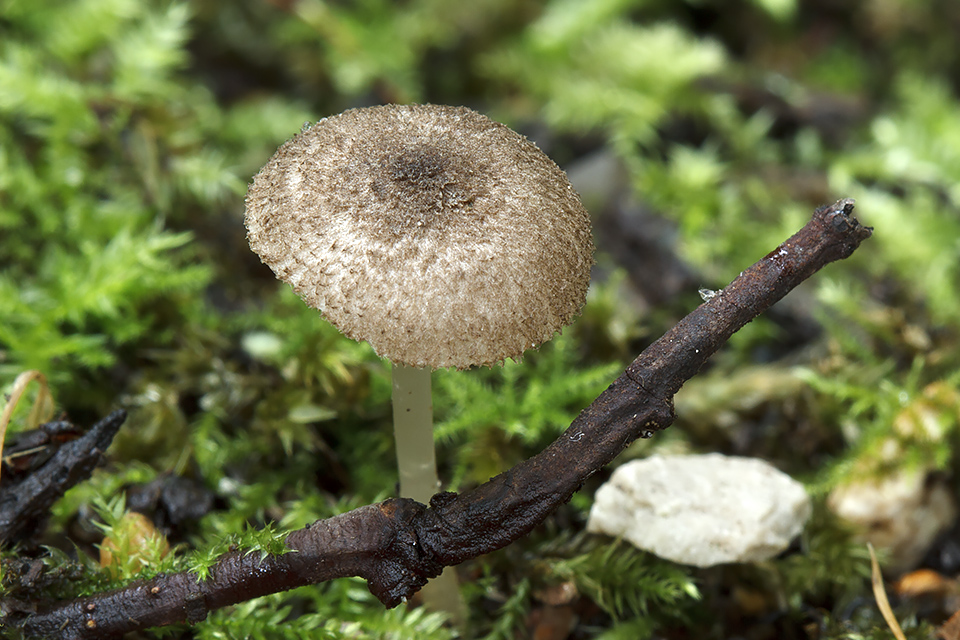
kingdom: Fungi
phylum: Basidiomycota
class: Agaricomycetes
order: Agaricales
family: Pluteaceae
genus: Pluteus
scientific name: Pluteus hispidulus
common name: Fleecy shield
